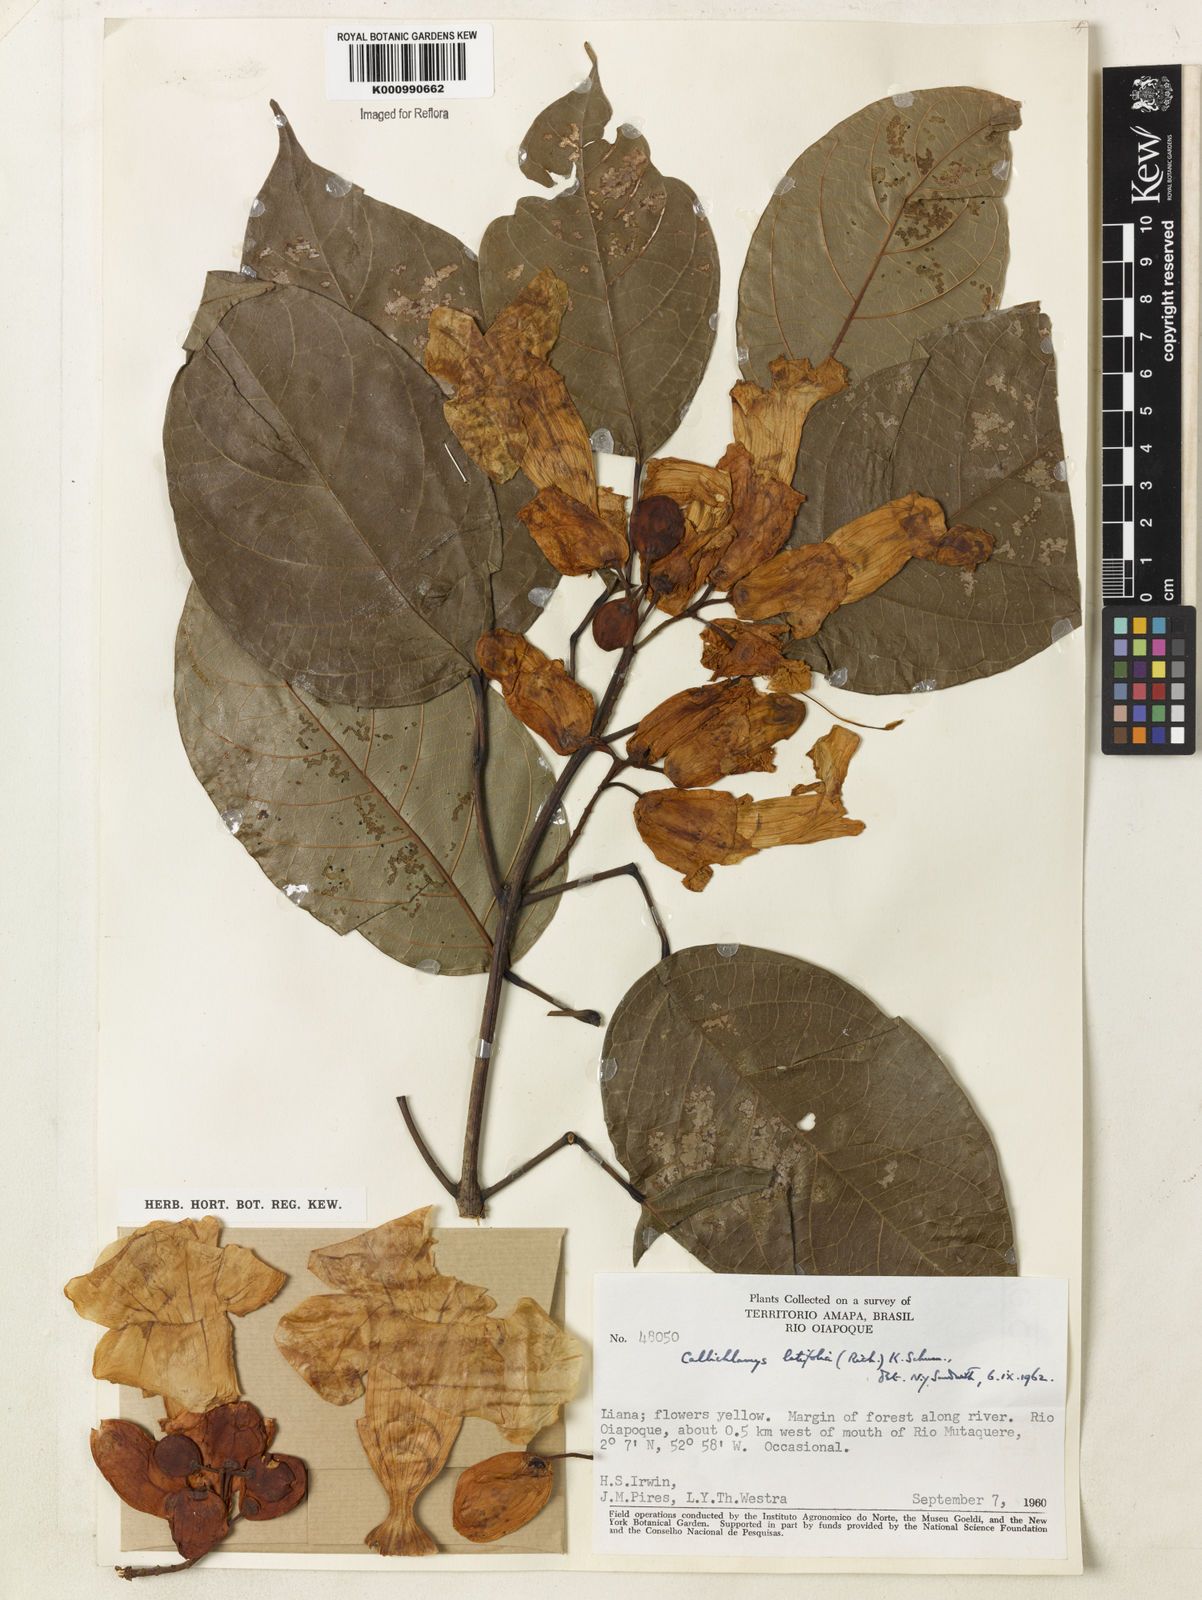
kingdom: Plantae
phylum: Tracheophyta
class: Magnoliopsida
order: Lamiales
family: Bignoniaceae
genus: Callichlamys
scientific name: Callichlamys latifolia
